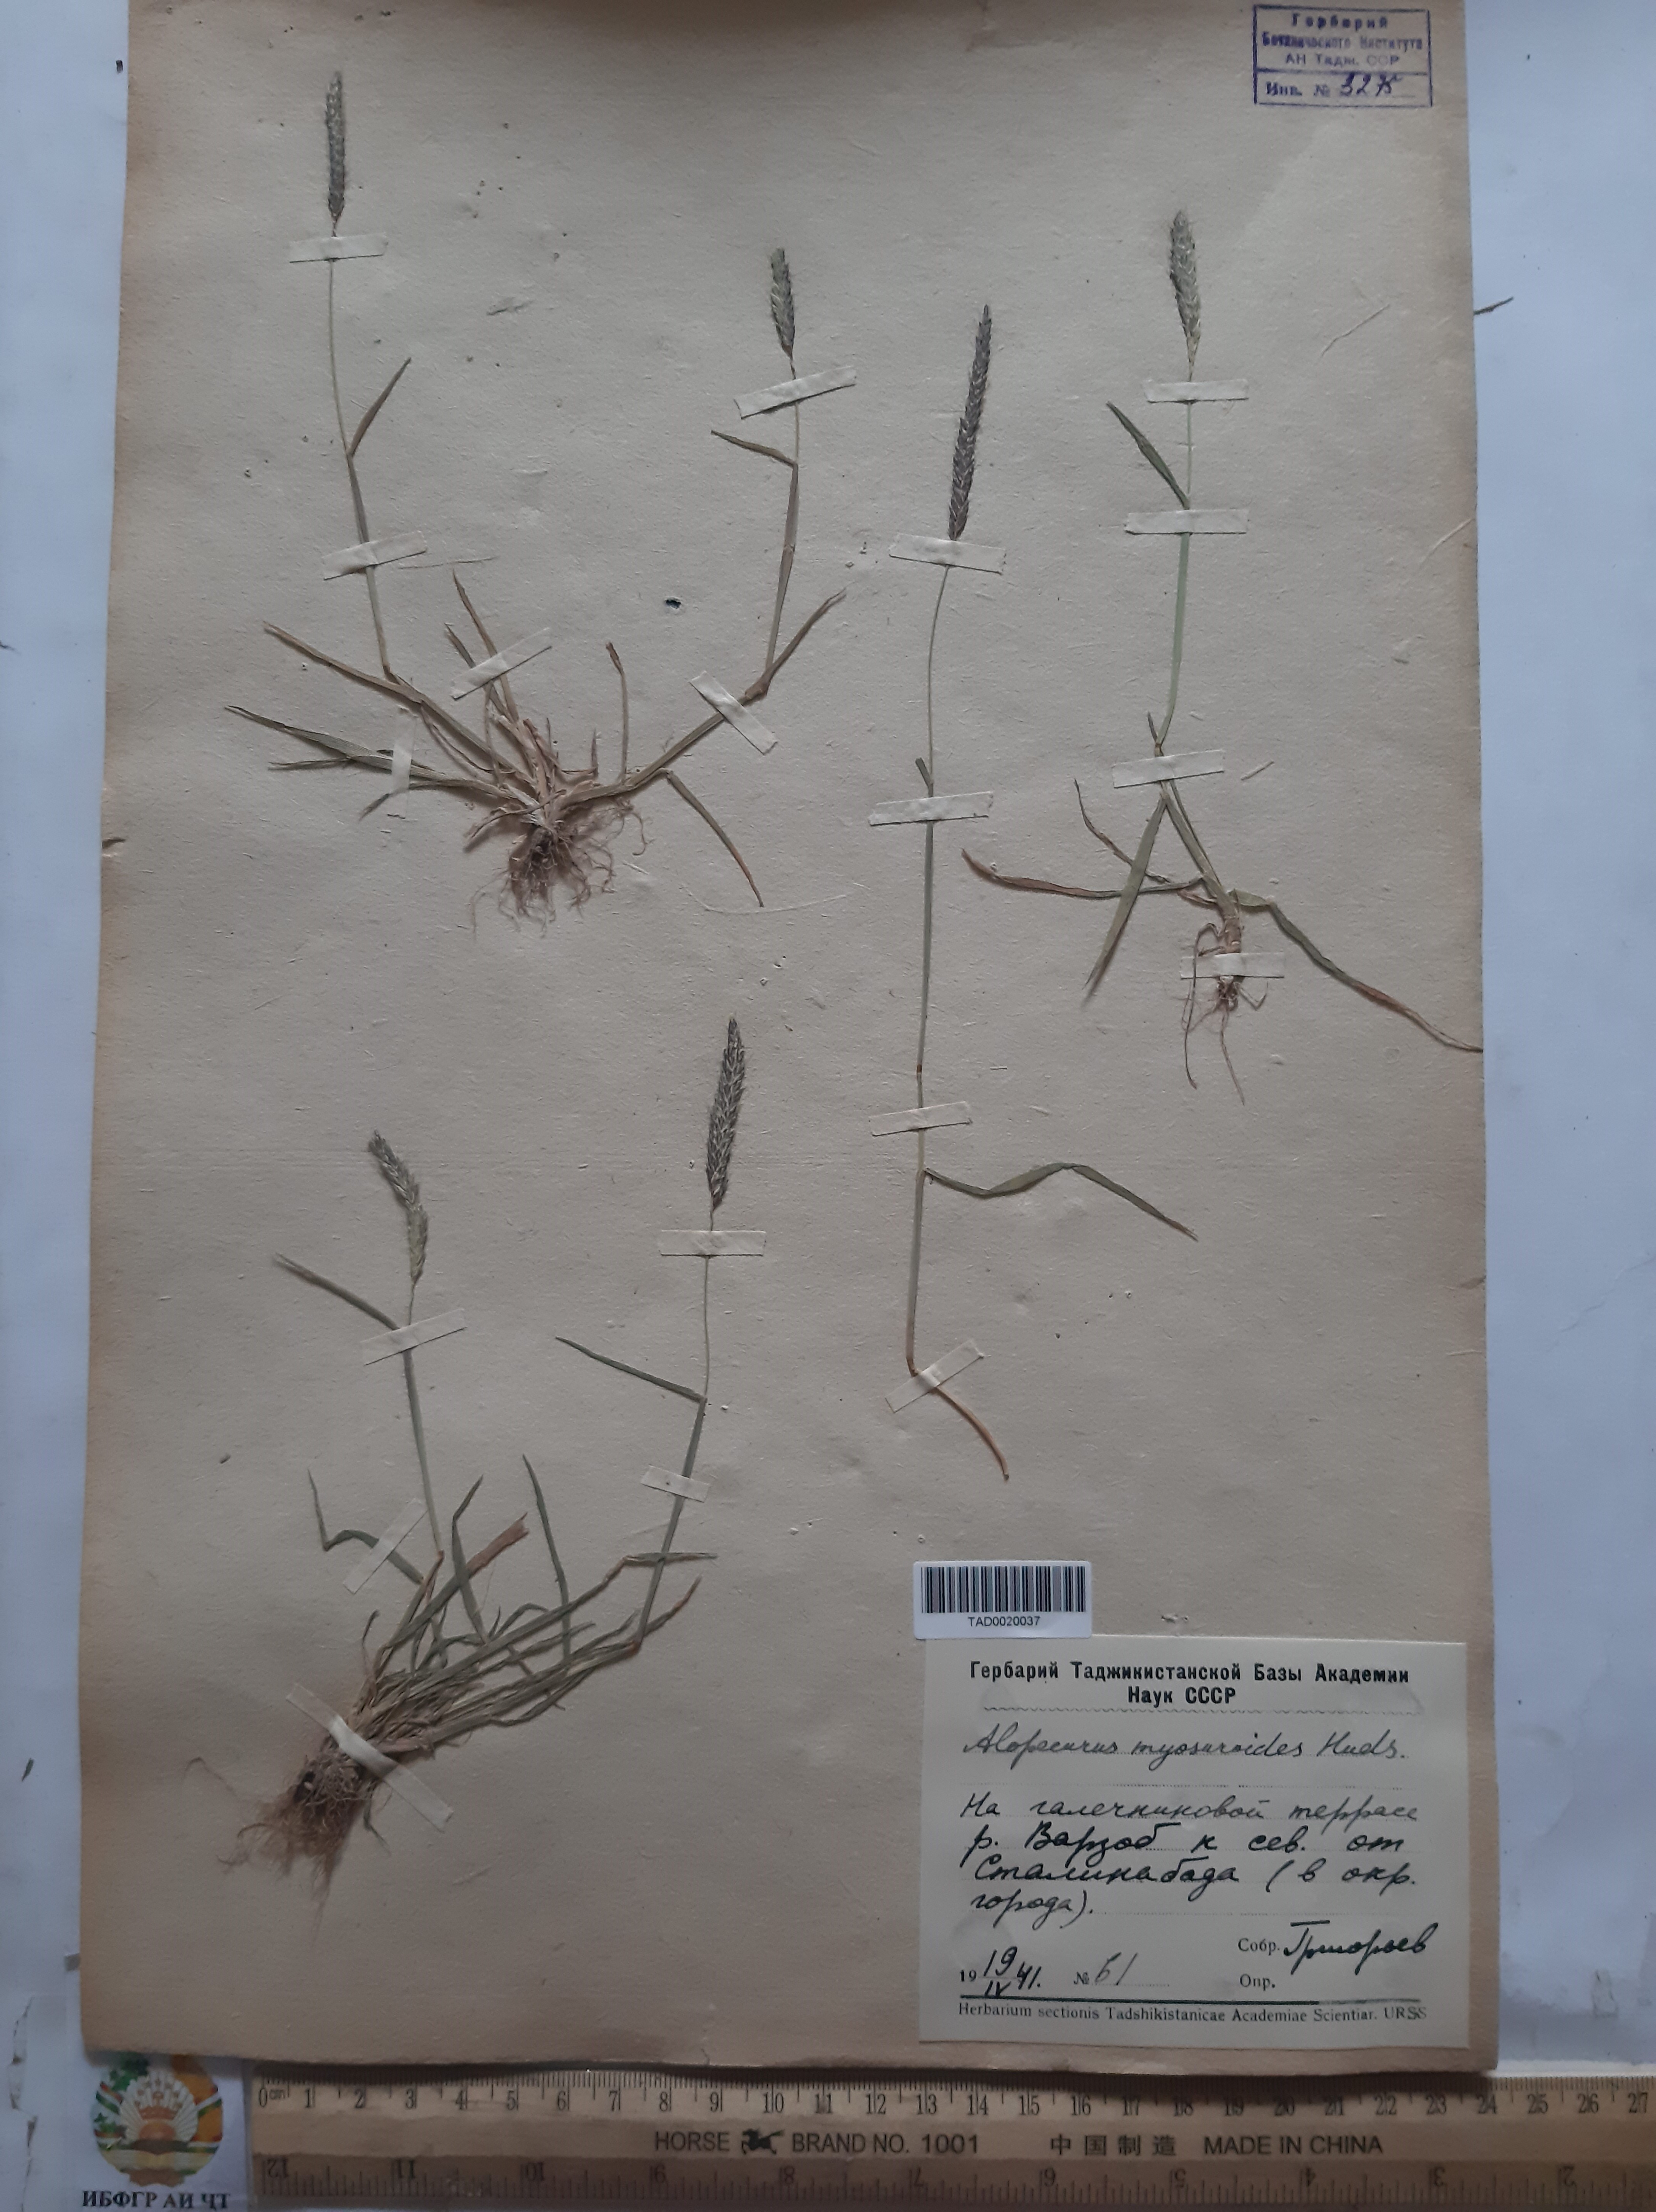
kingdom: Plantae
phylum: Tracheophyta
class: Liliopsida
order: Poales
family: Poaceae
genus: Alopecurus
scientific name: Alopecurus mucronatus
